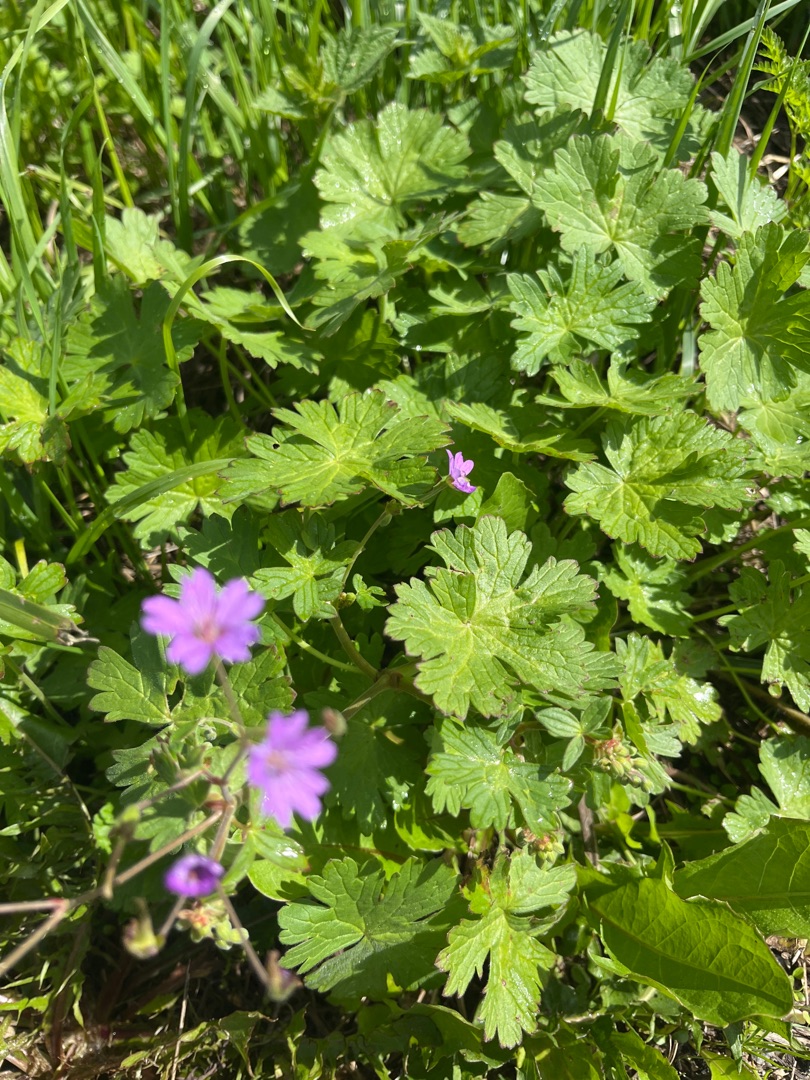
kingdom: Plantae
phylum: Tracheophyta
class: Magnoliopsida
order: Geraniales
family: Geraniaceae
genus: Geranium
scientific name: Geranium pyrenaicum
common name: Pyrenæisk storkenæb
